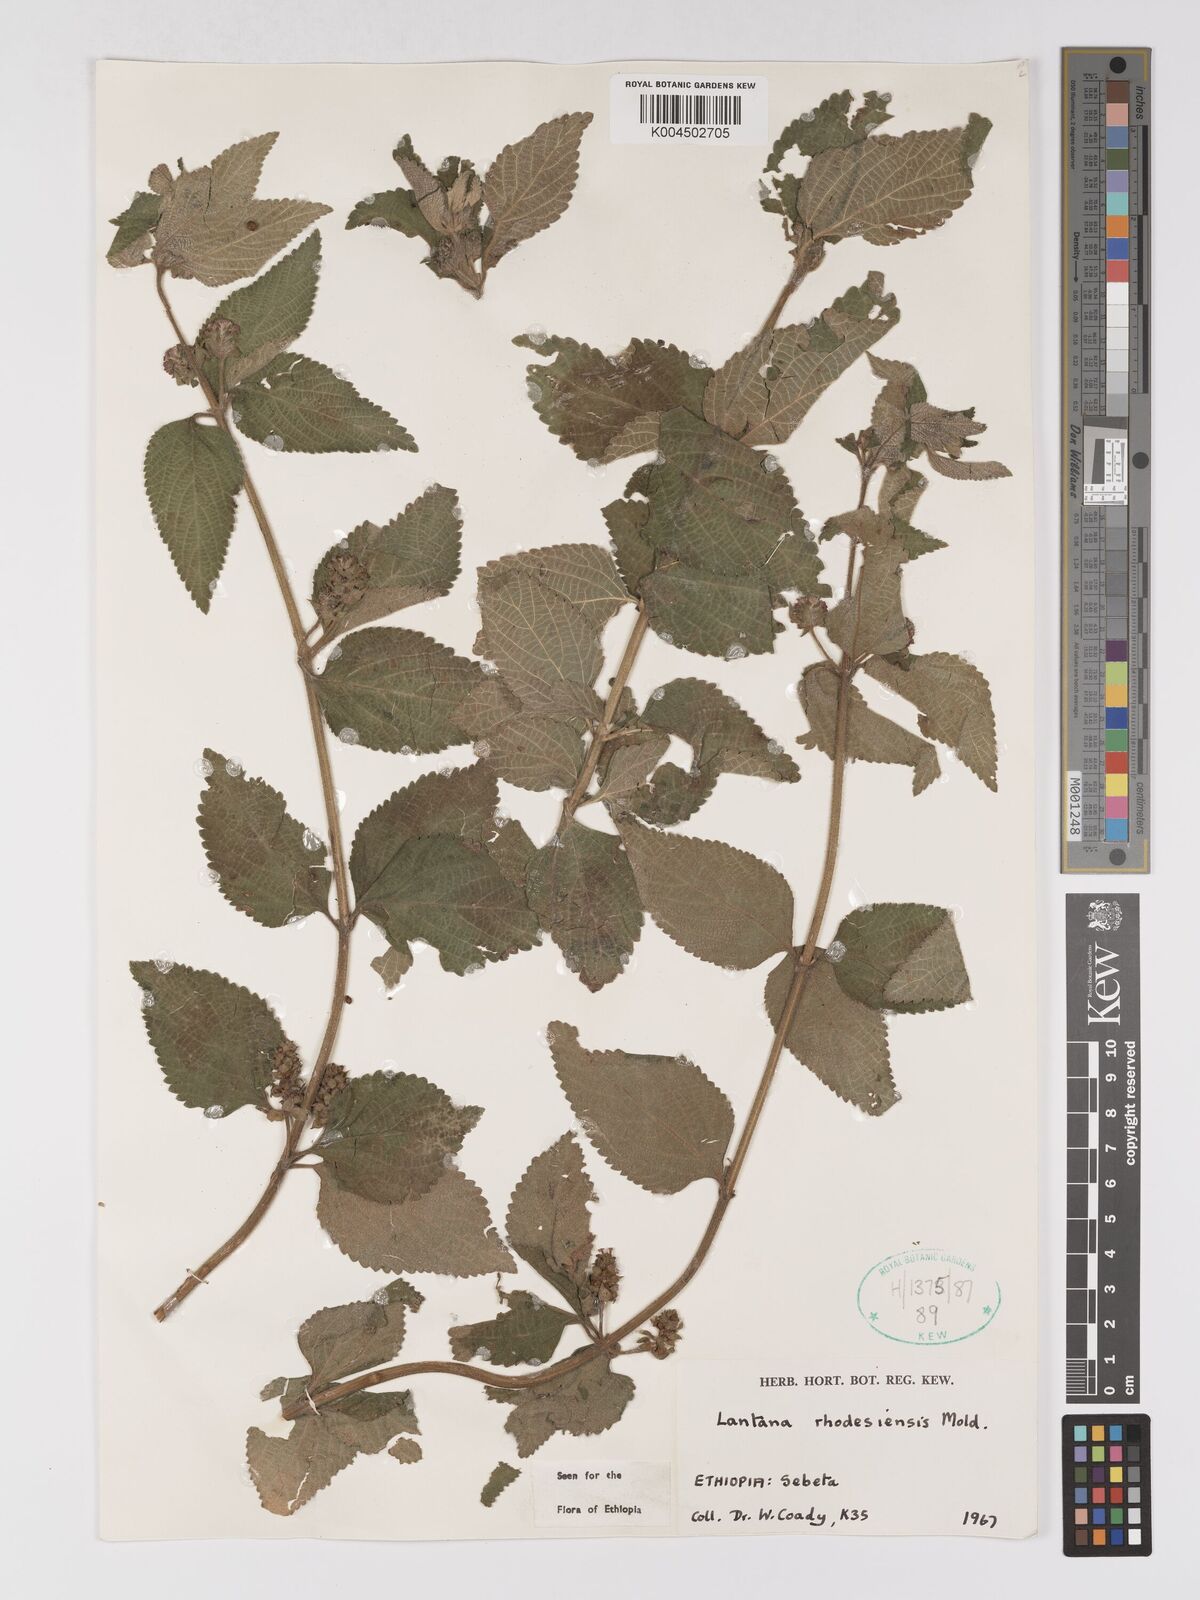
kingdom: Plantae
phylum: Tracheophyta
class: Magnoliopsida
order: Lamiales
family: Verbenaceae
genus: Lantana
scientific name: Lantana ukambensis
